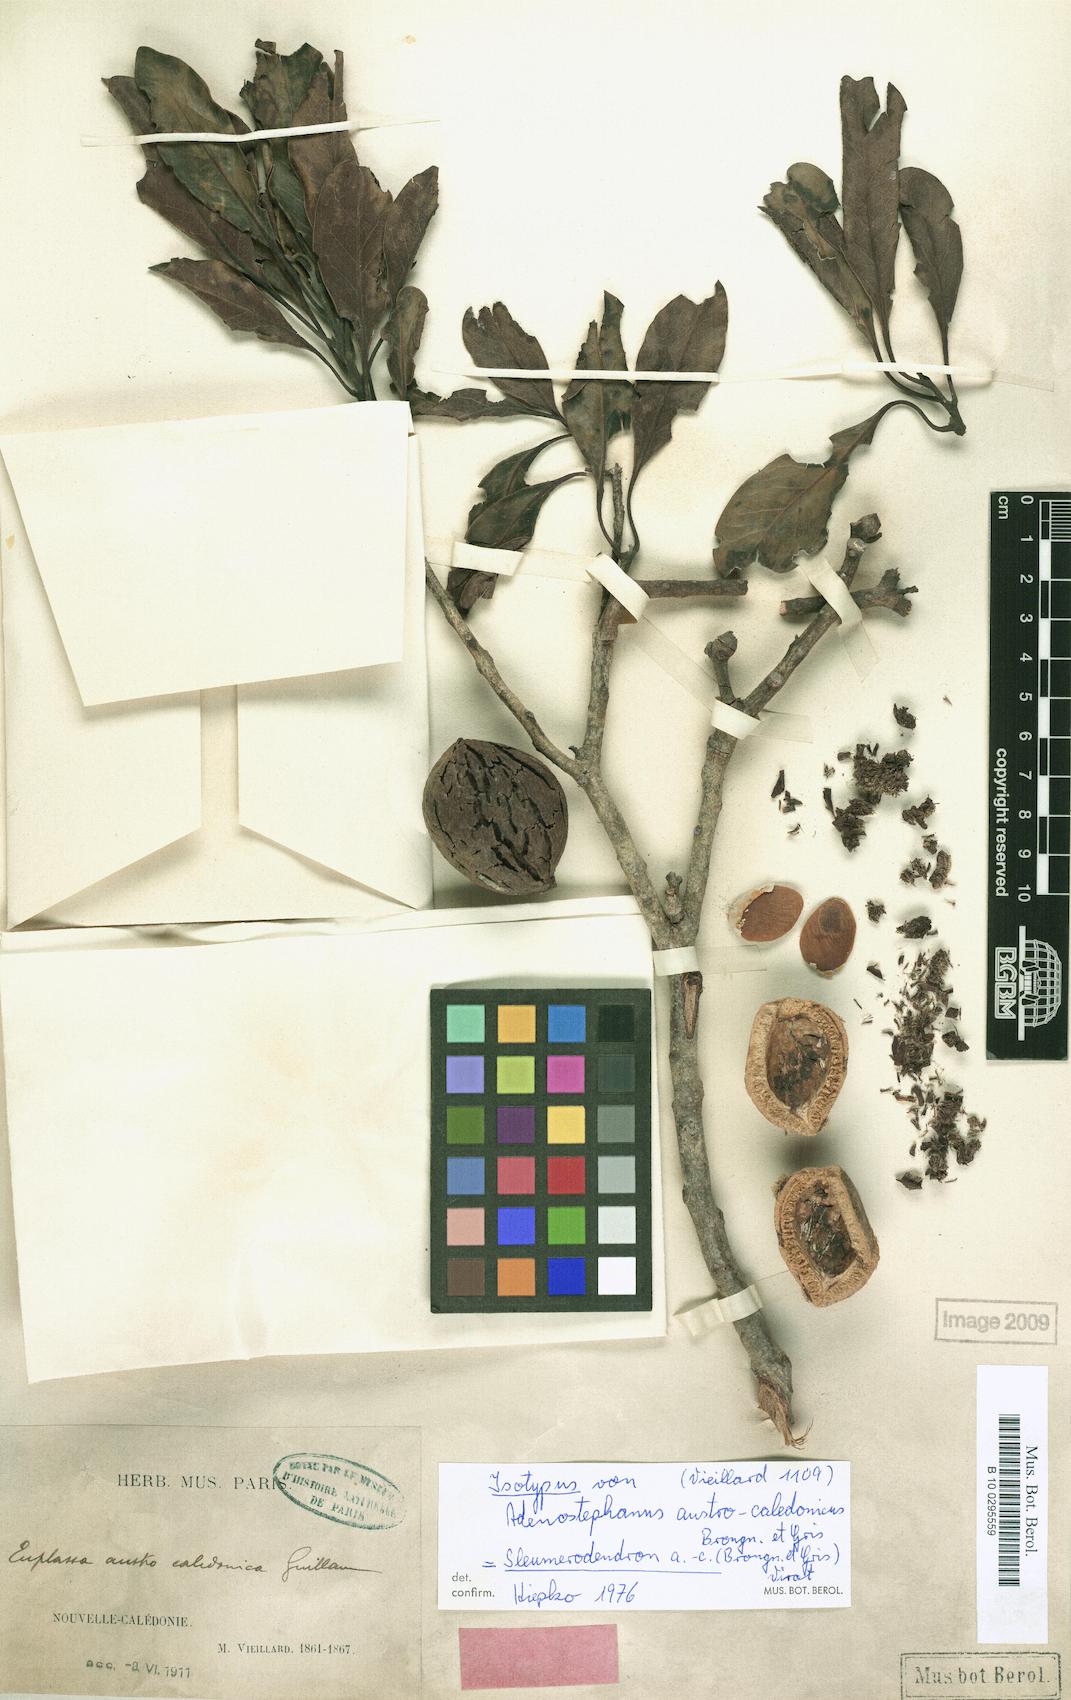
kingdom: Plantae
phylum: Tracheophyta
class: Magnoliopsida
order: Proteales
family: Proteaceae
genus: Sleumerodendron
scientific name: Sleumerodendron austrocaledonicum
